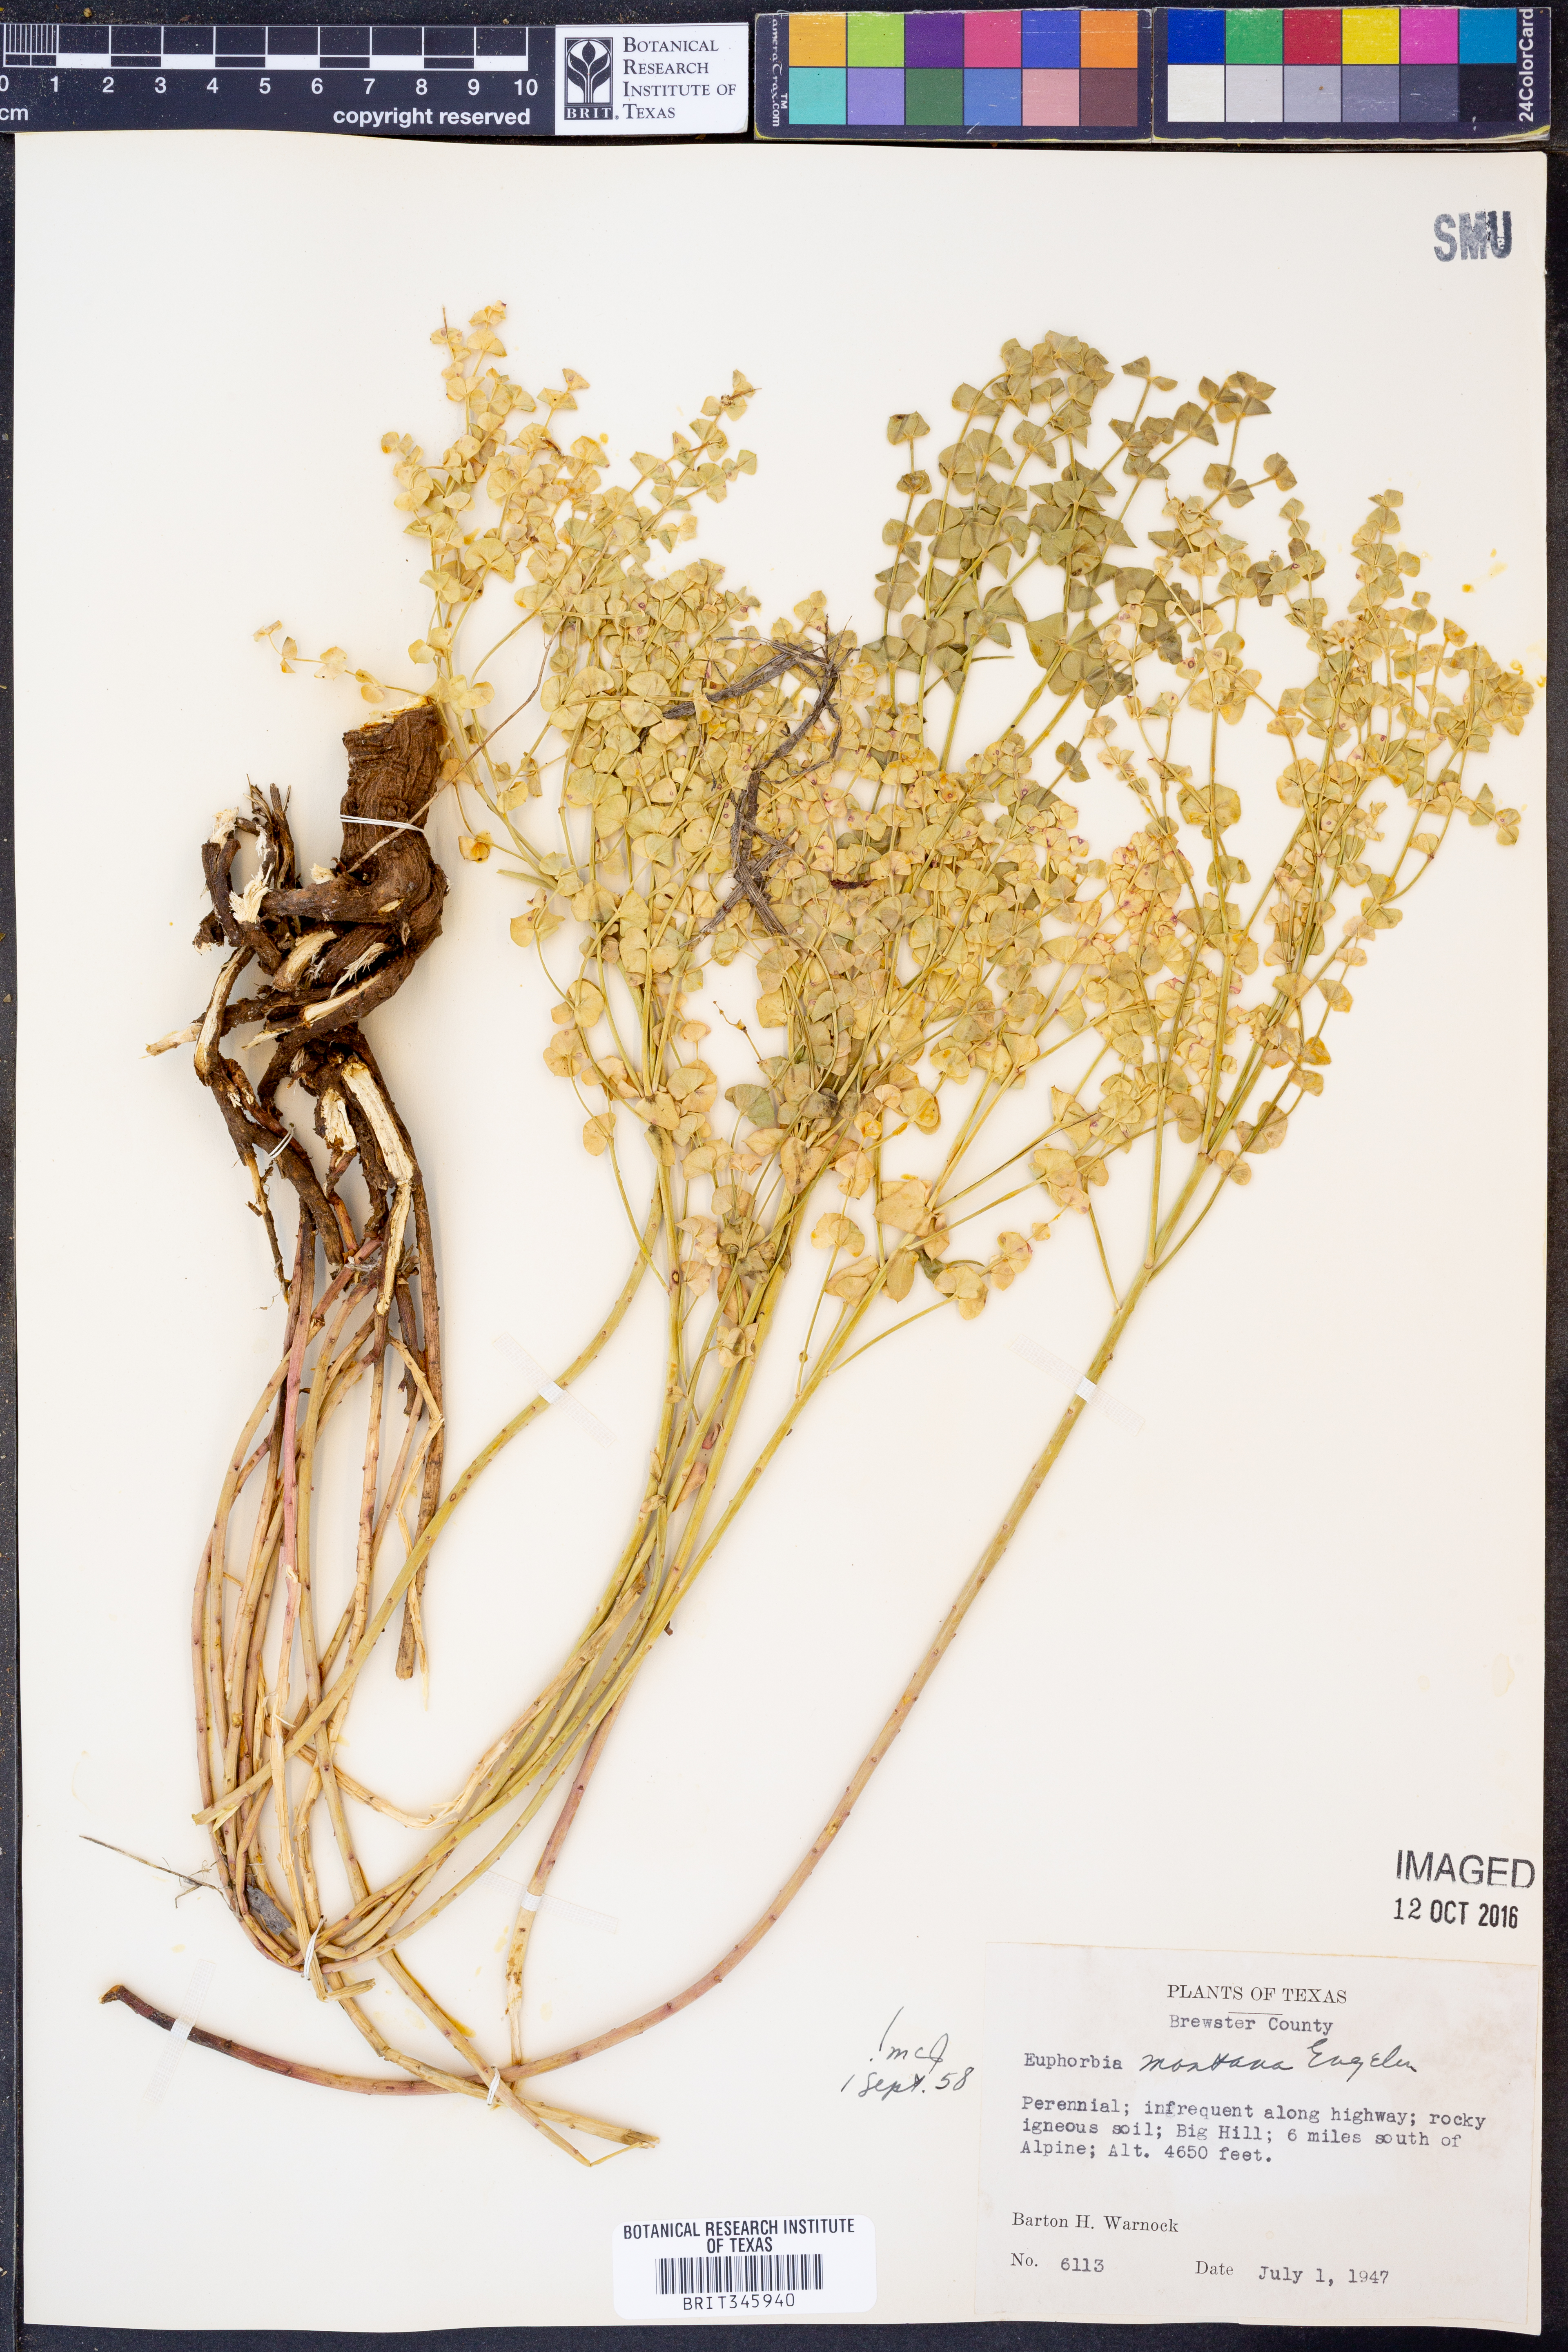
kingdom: Plantae
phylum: Tracheophyta
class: Magnoliopsida
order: Malpighiales
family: Euphorbiaceae
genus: Euphorbia
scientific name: Euphorbia brachycera
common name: Shorthorn spurge
